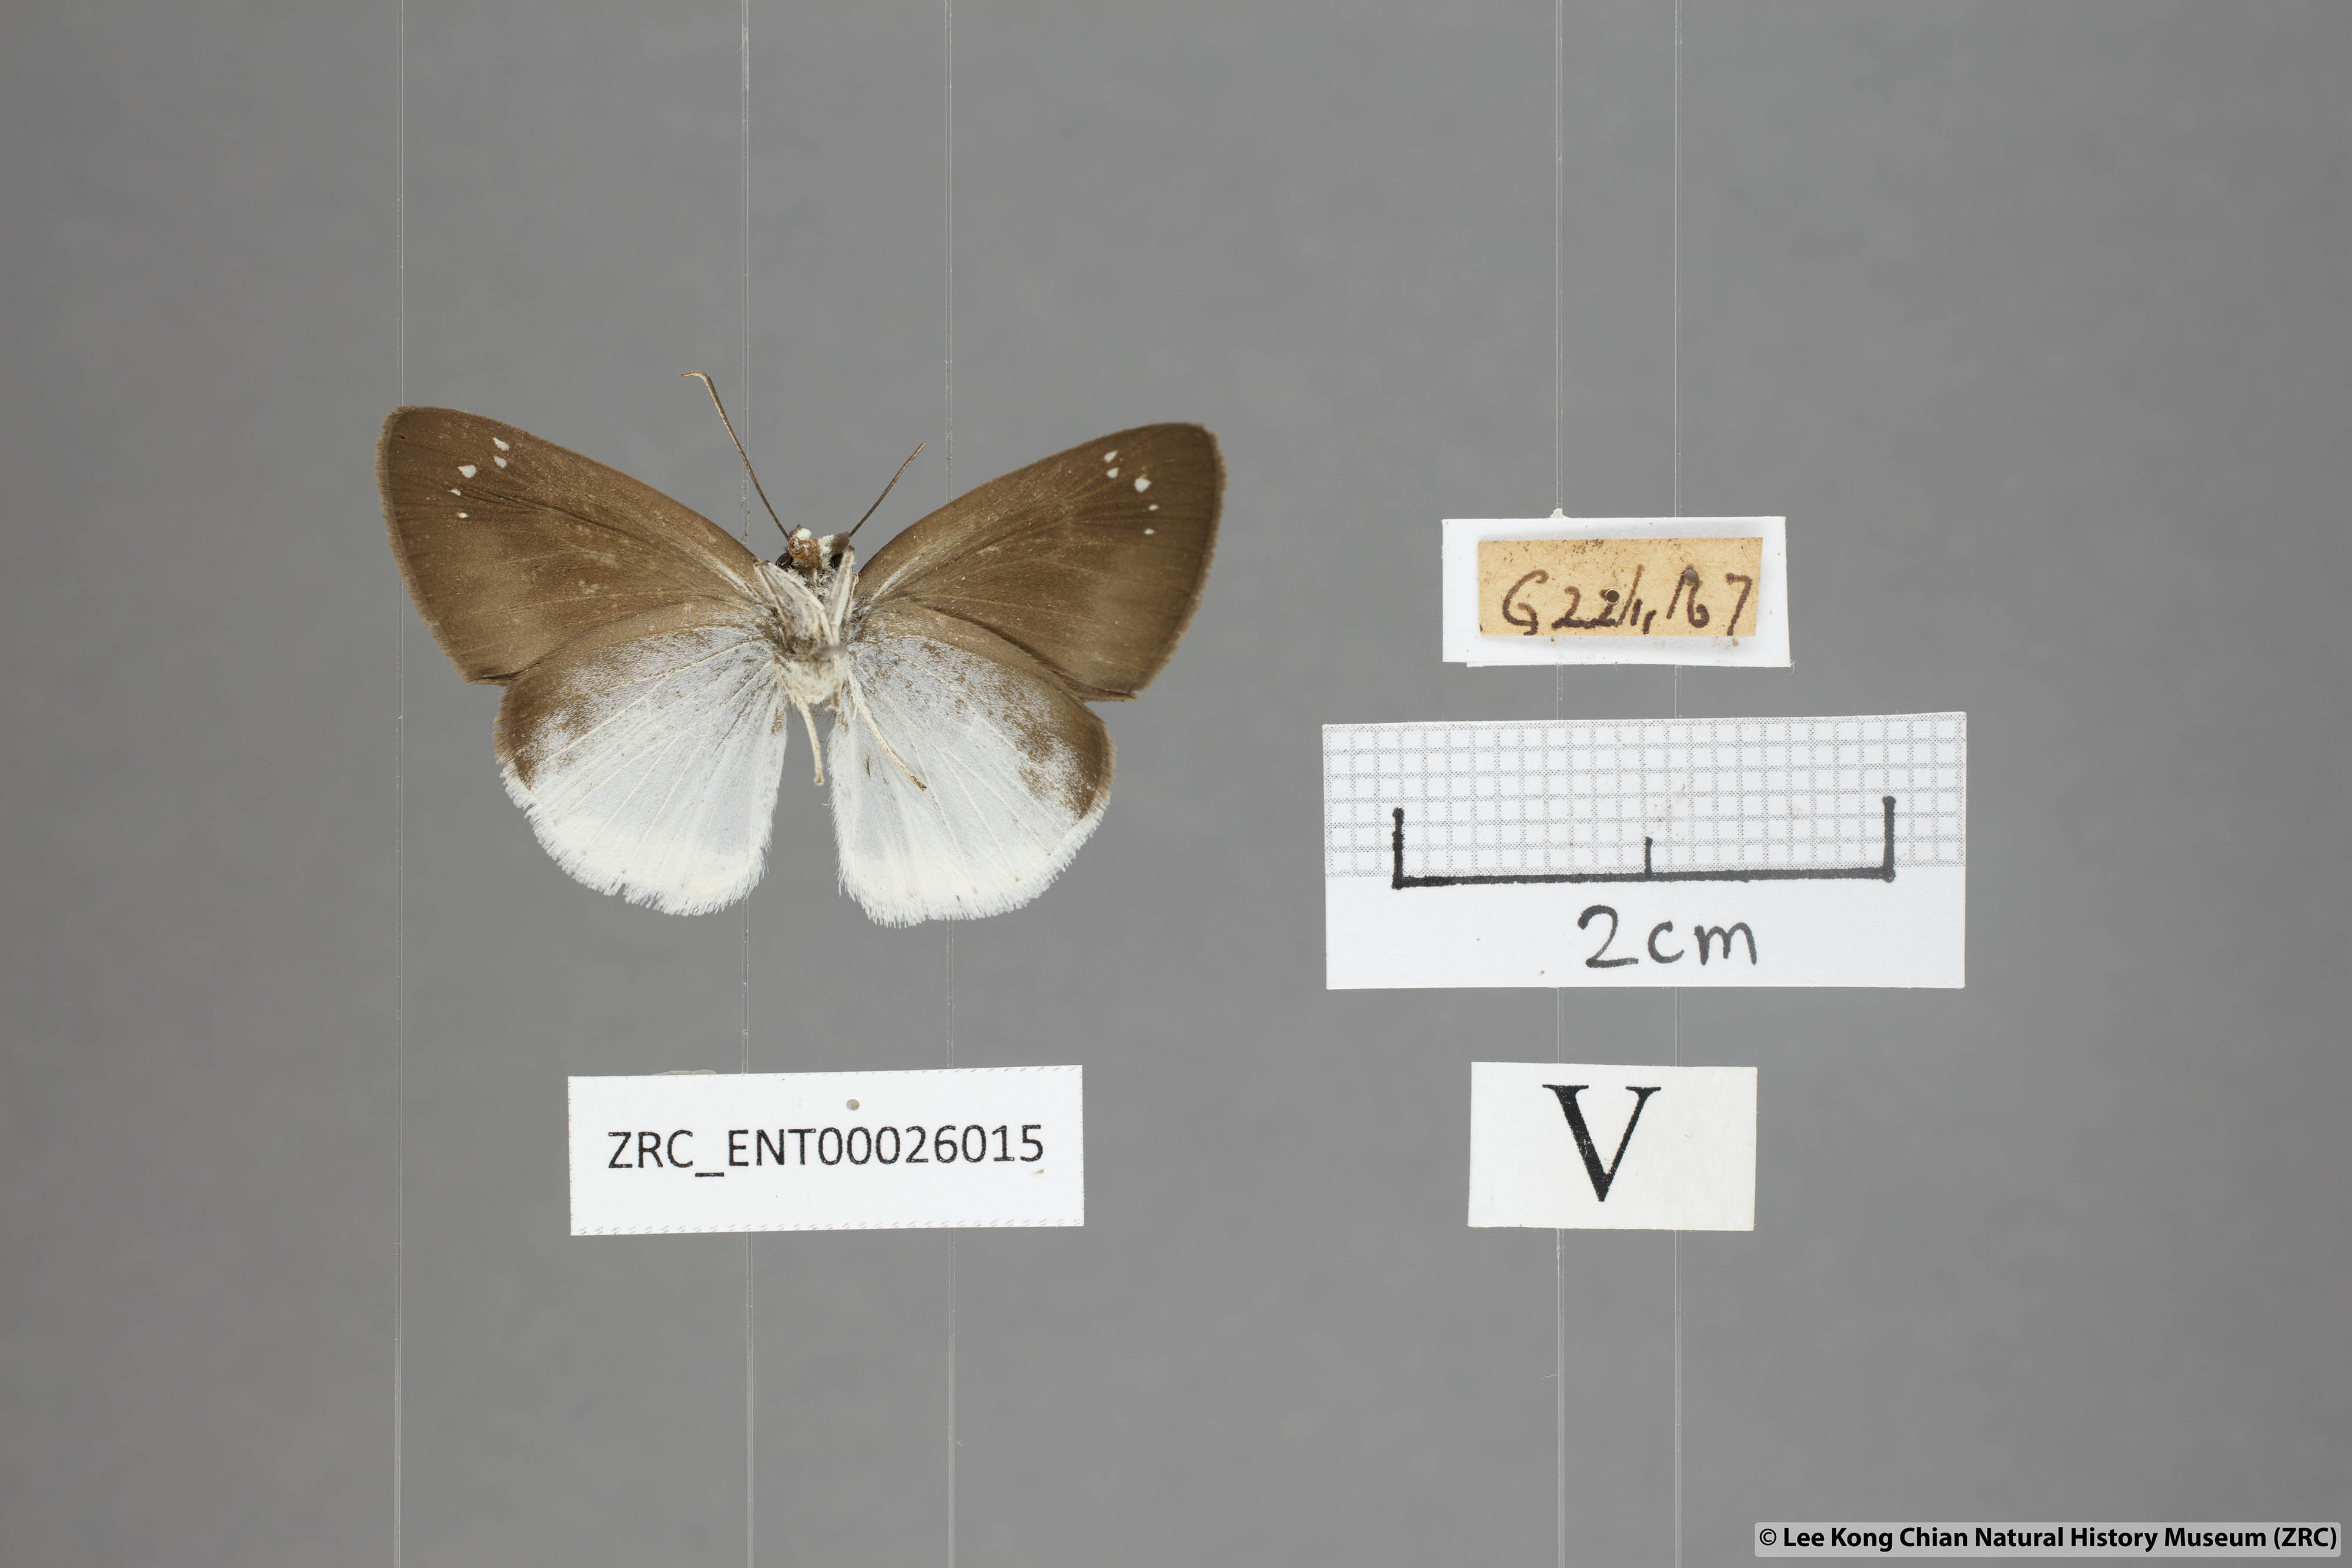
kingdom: Animalia
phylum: Arthropoda
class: Insecta
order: Lepidoptera
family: Hesperiidae
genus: Tagiades
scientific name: Tagiades lavata
